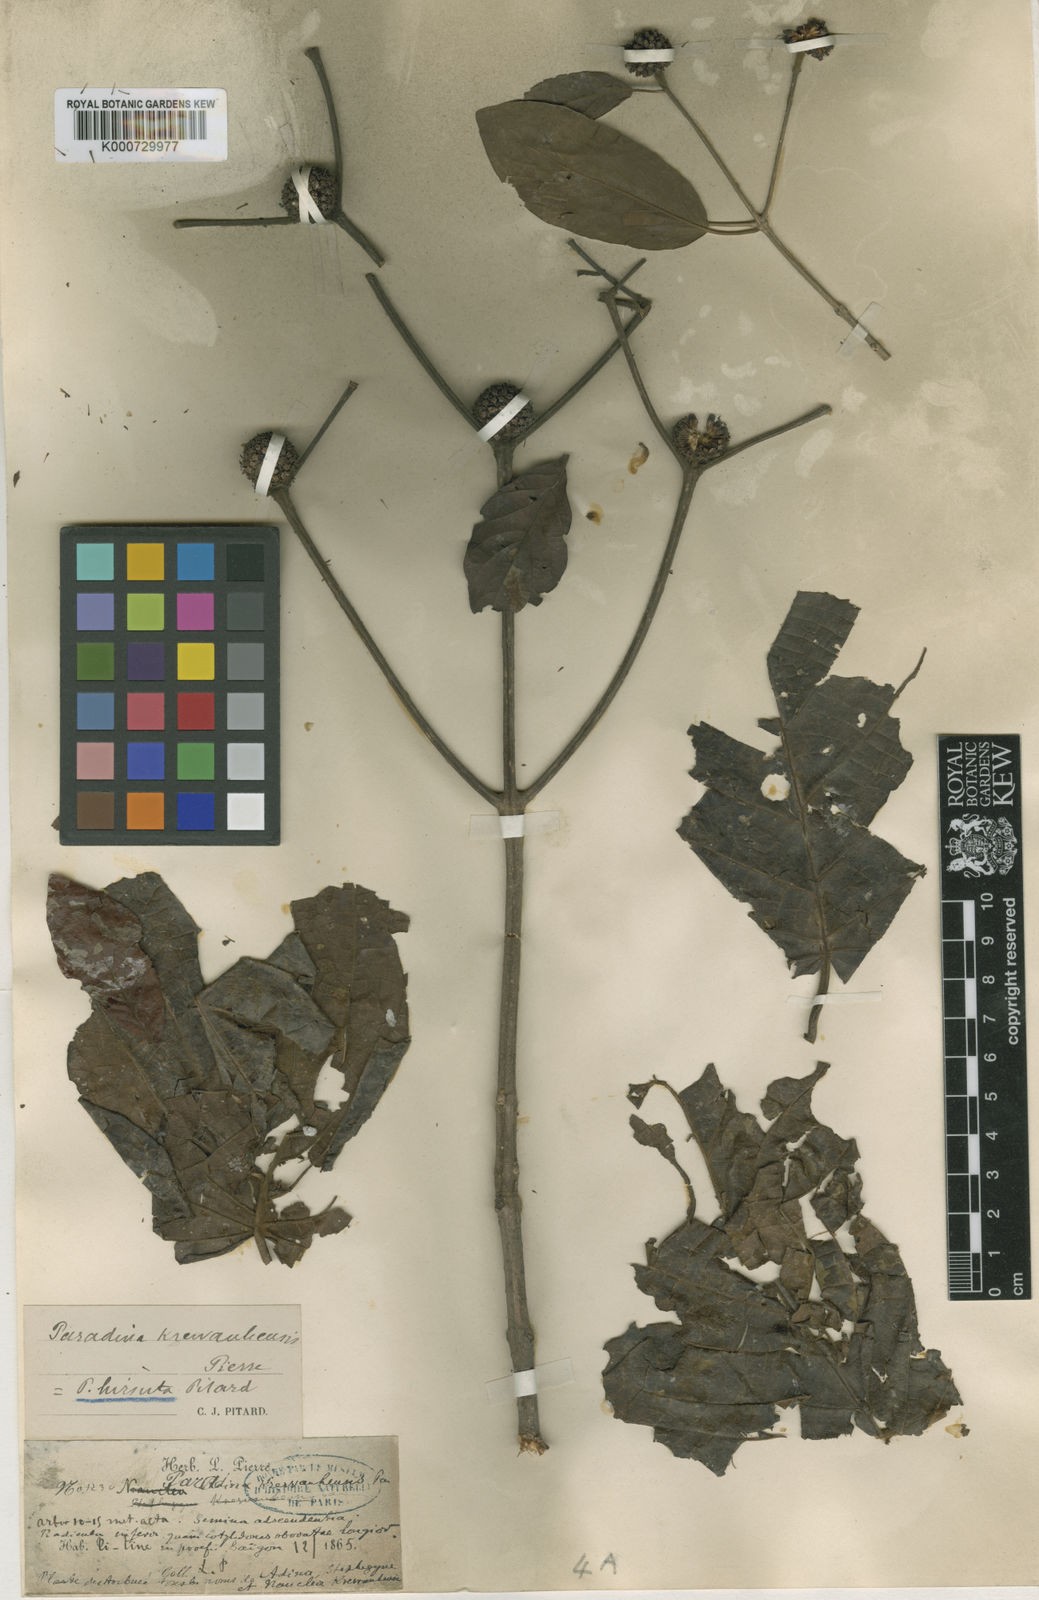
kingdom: Plantae
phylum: Tracheophyta
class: Magnoliopsida
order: Gentianales
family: Rubiaceae
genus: Mitragyna
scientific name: Mitragyna hirsuta
